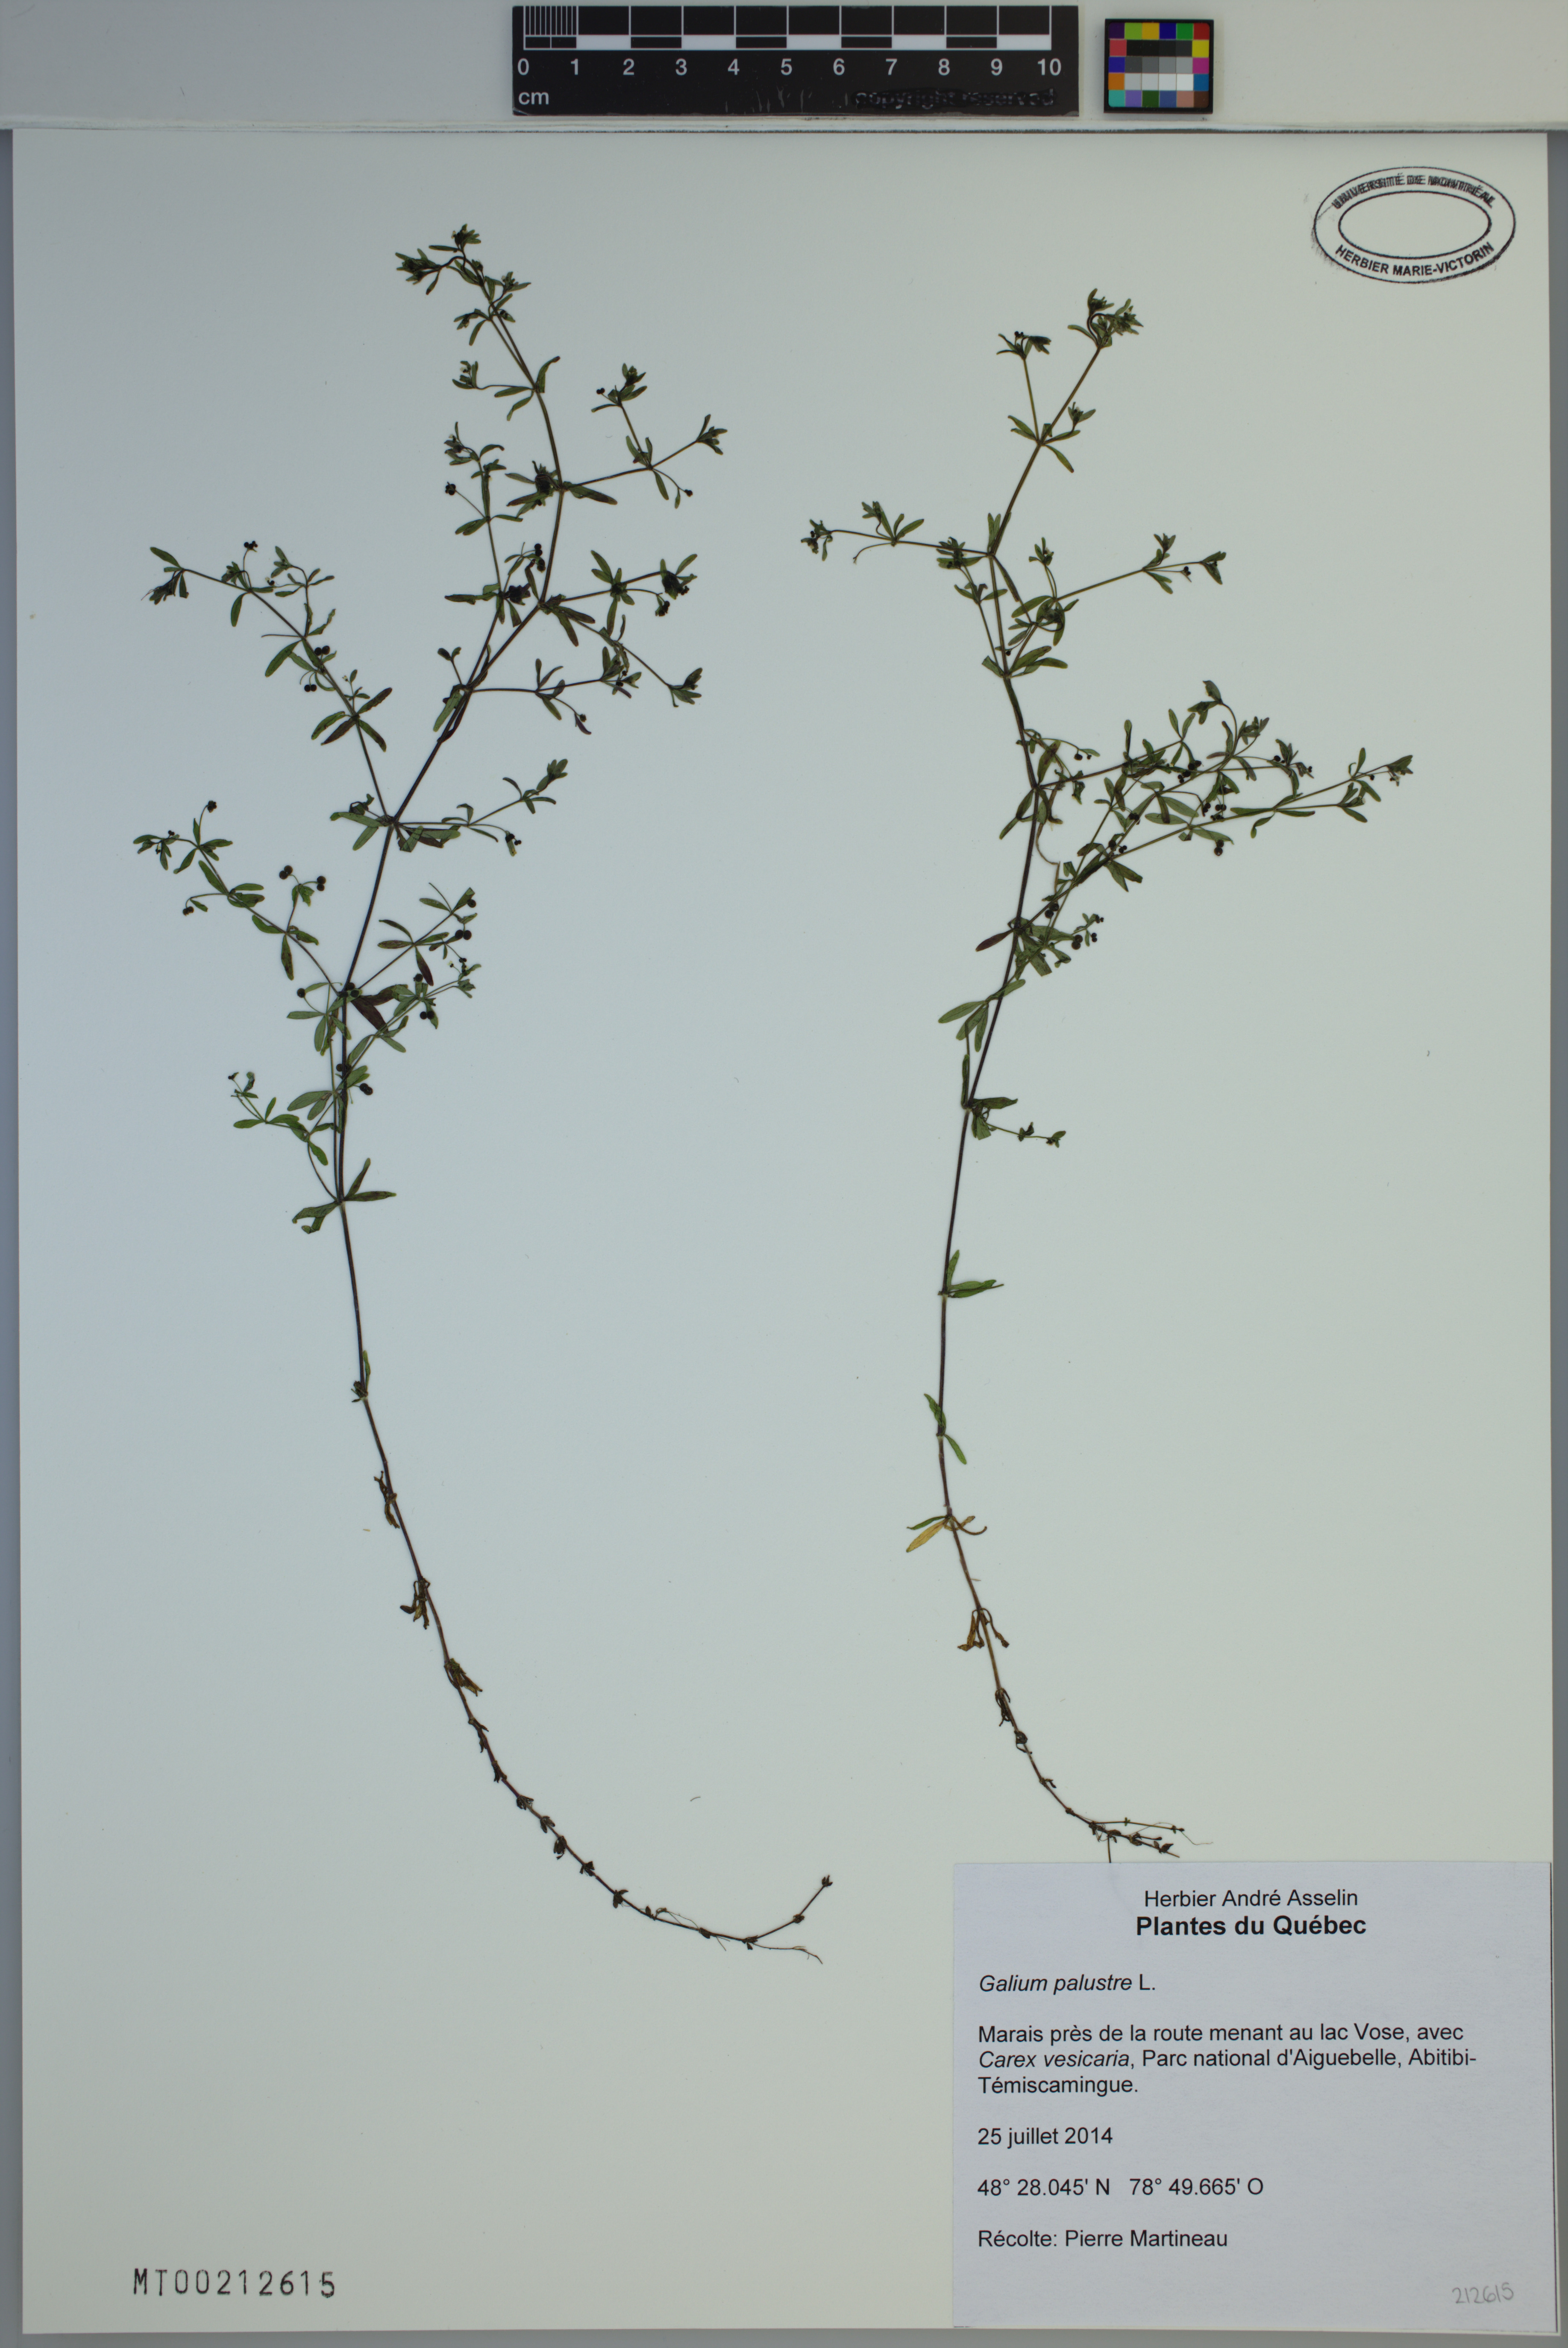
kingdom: Plantae
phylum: Tracheophyta
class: Magnoliopsida
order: Gentianales
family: Rubiaceae
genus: Galium
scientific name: Galium palustre
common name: Common marsh-bedstraw
